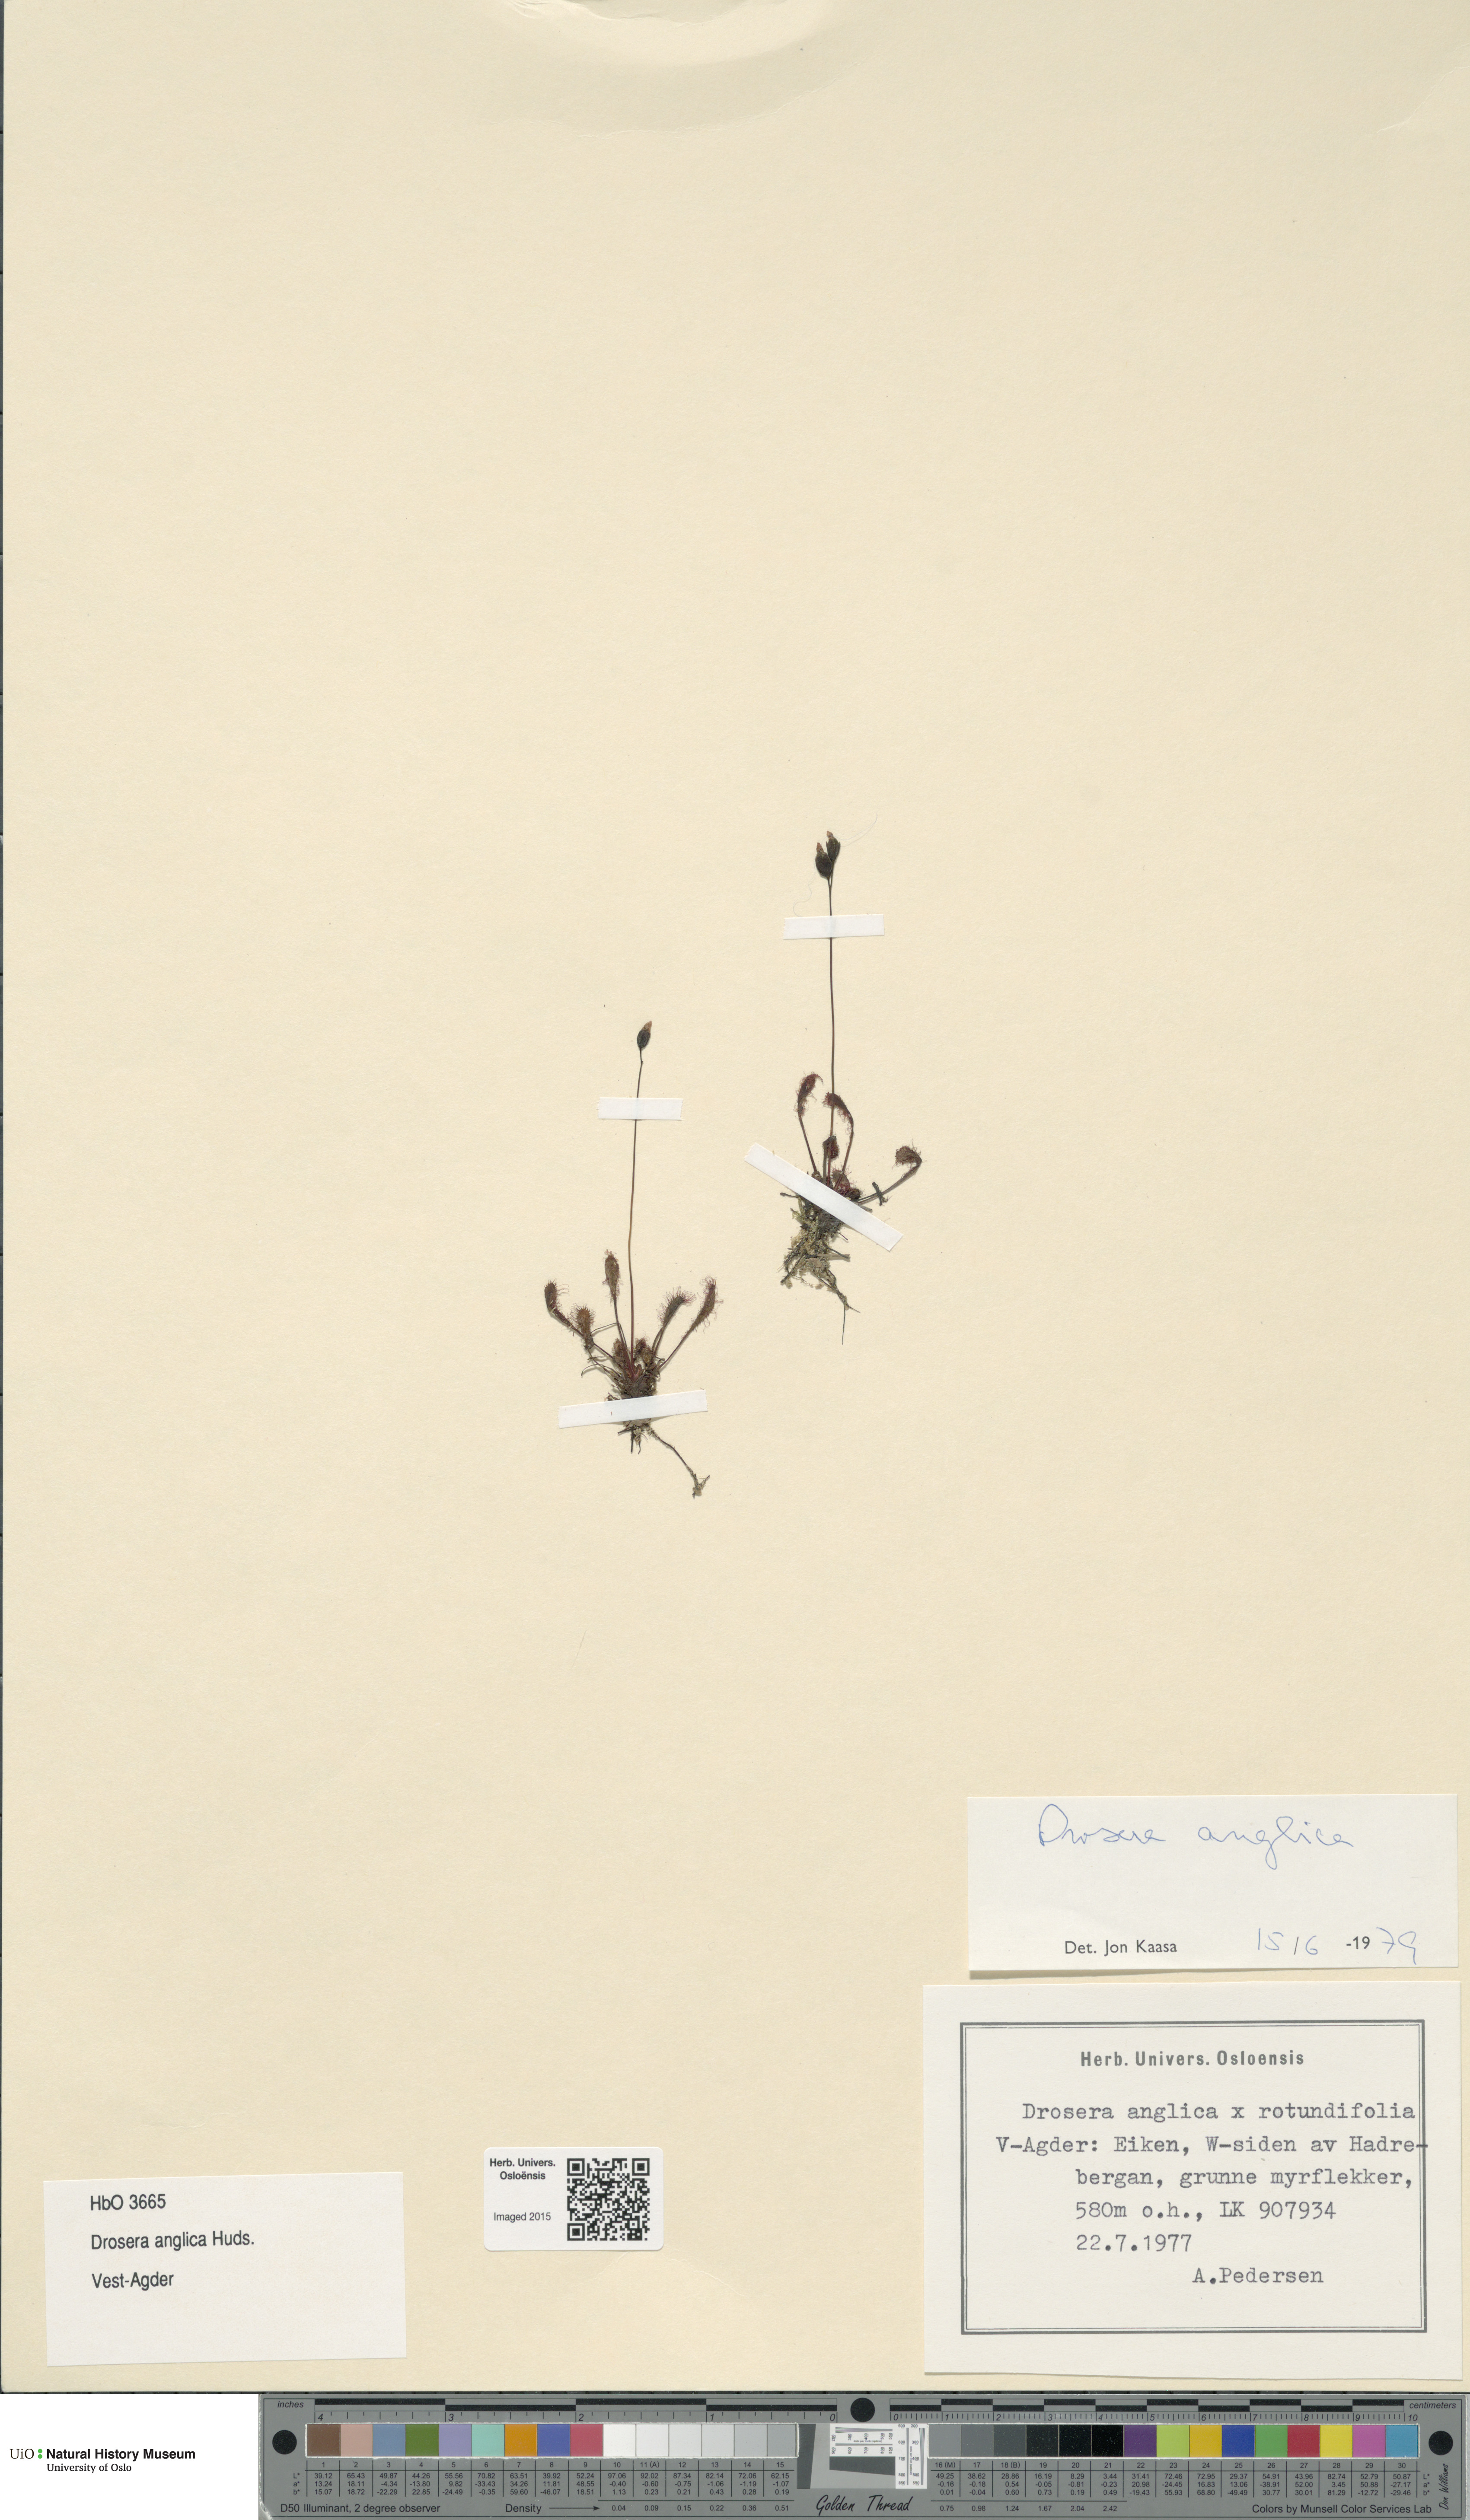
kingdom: Plantae
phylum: Tracheophyta
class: Magnoliopsida
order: Caryophyllales
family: Droseraceae
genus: Drosera
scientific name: Drosera anglica
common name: Great sundew
